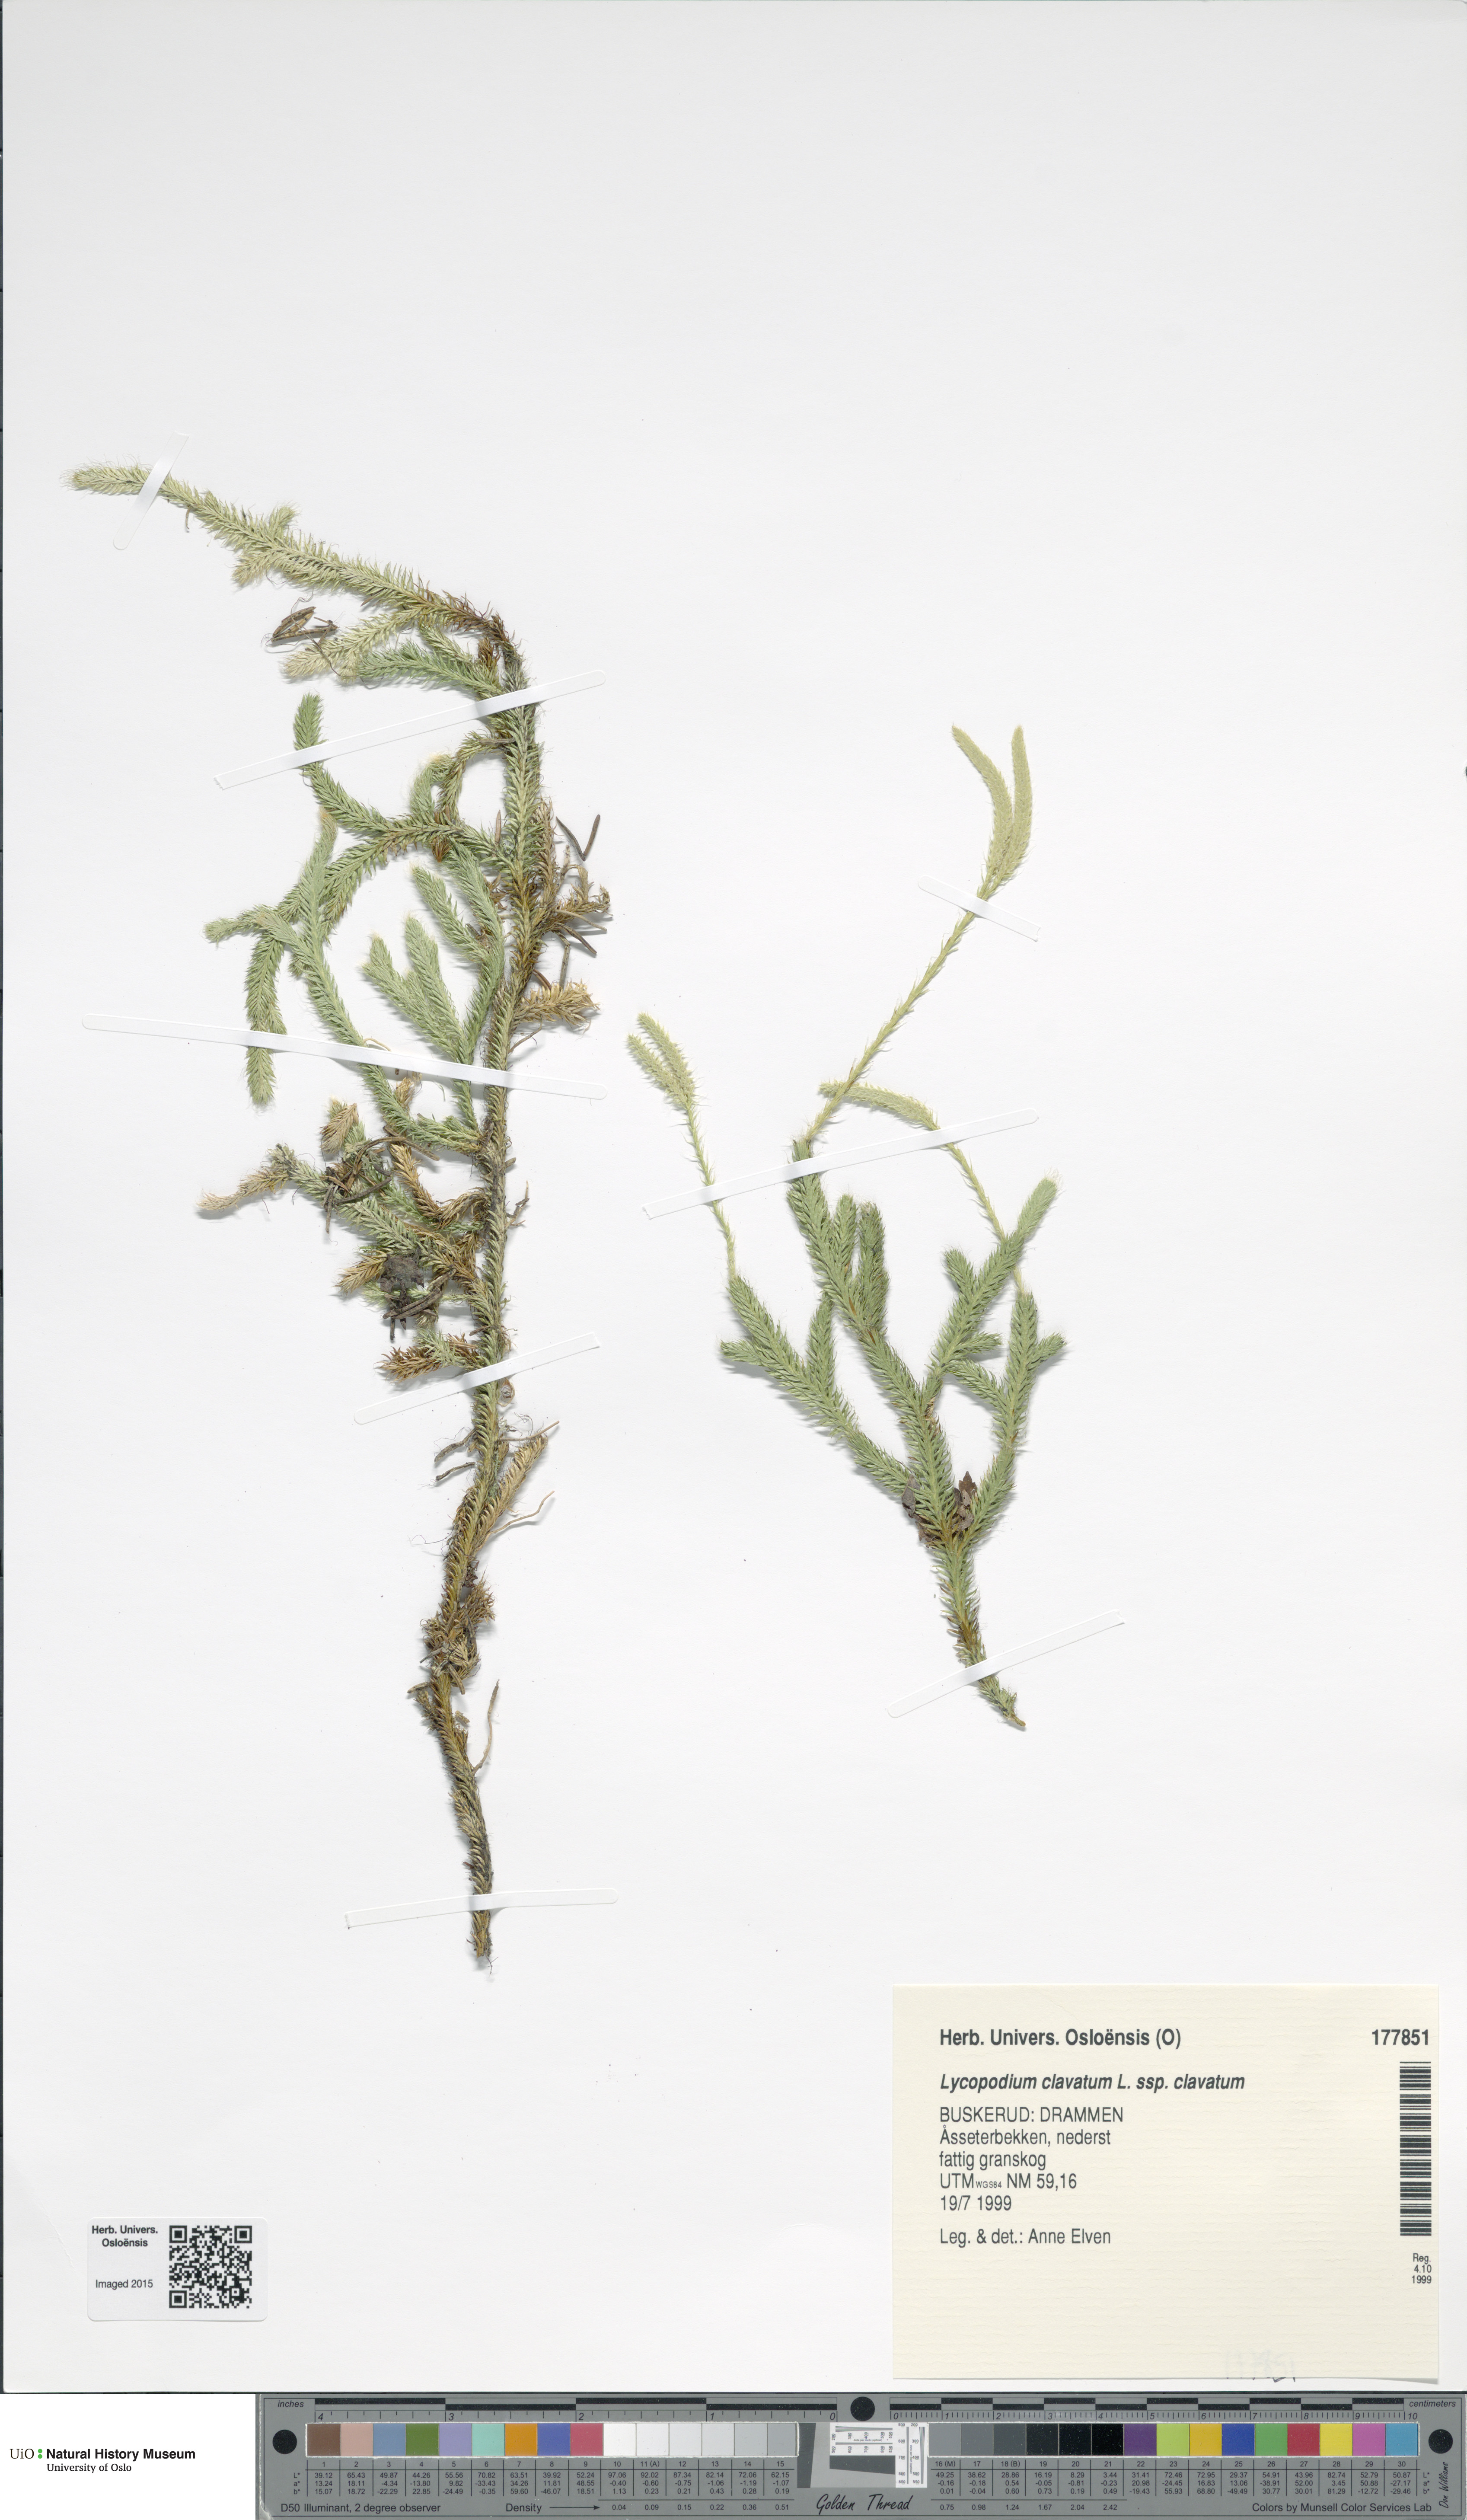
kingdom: Plantae
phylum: Tracheophyta
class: Lycopodiopsida
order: Lycopodiales
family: Lycopodiaceae
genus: Lycopodium
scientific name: Lycopodium clavatum
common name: Stag's-horn clubmoss
